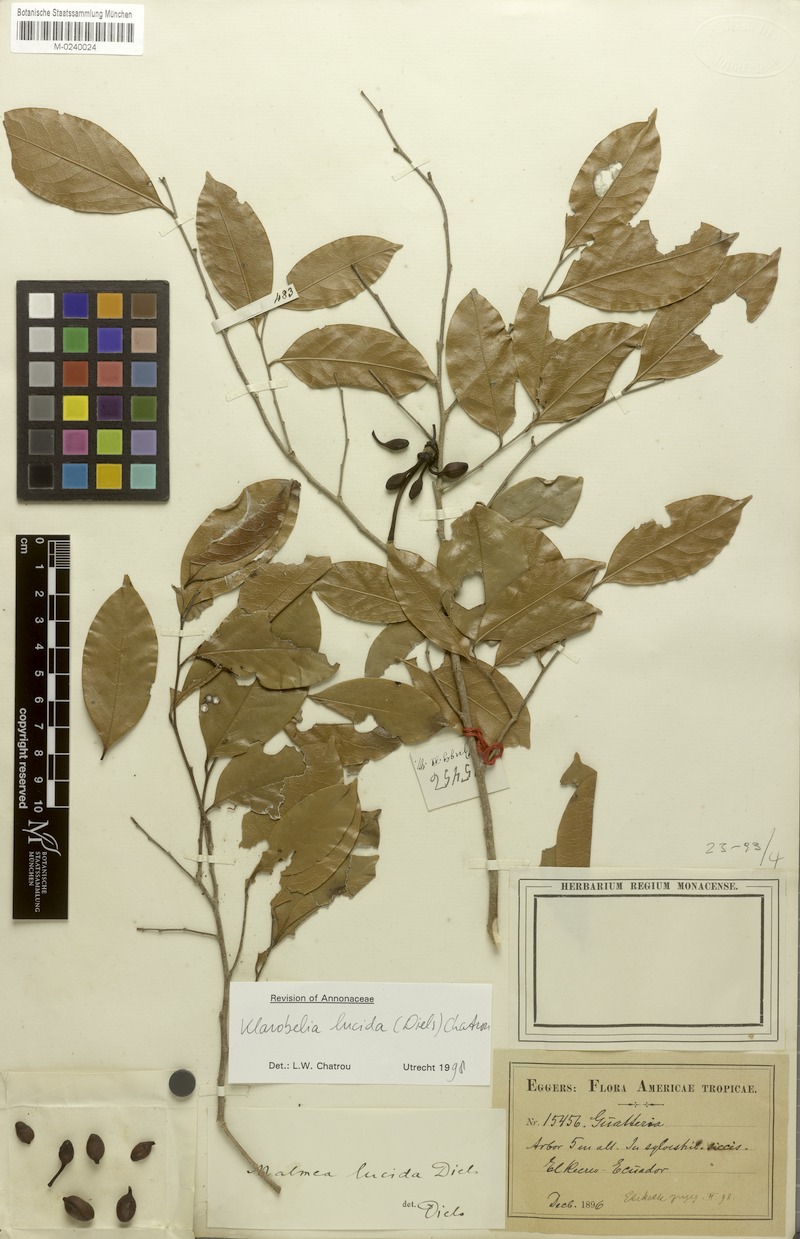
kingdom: Plantae
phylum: Tracheophyta
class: Magnoliopsida
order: Magnoliales
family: Annonaceae
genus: Klarobelia
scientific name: Klarobelia lucida
